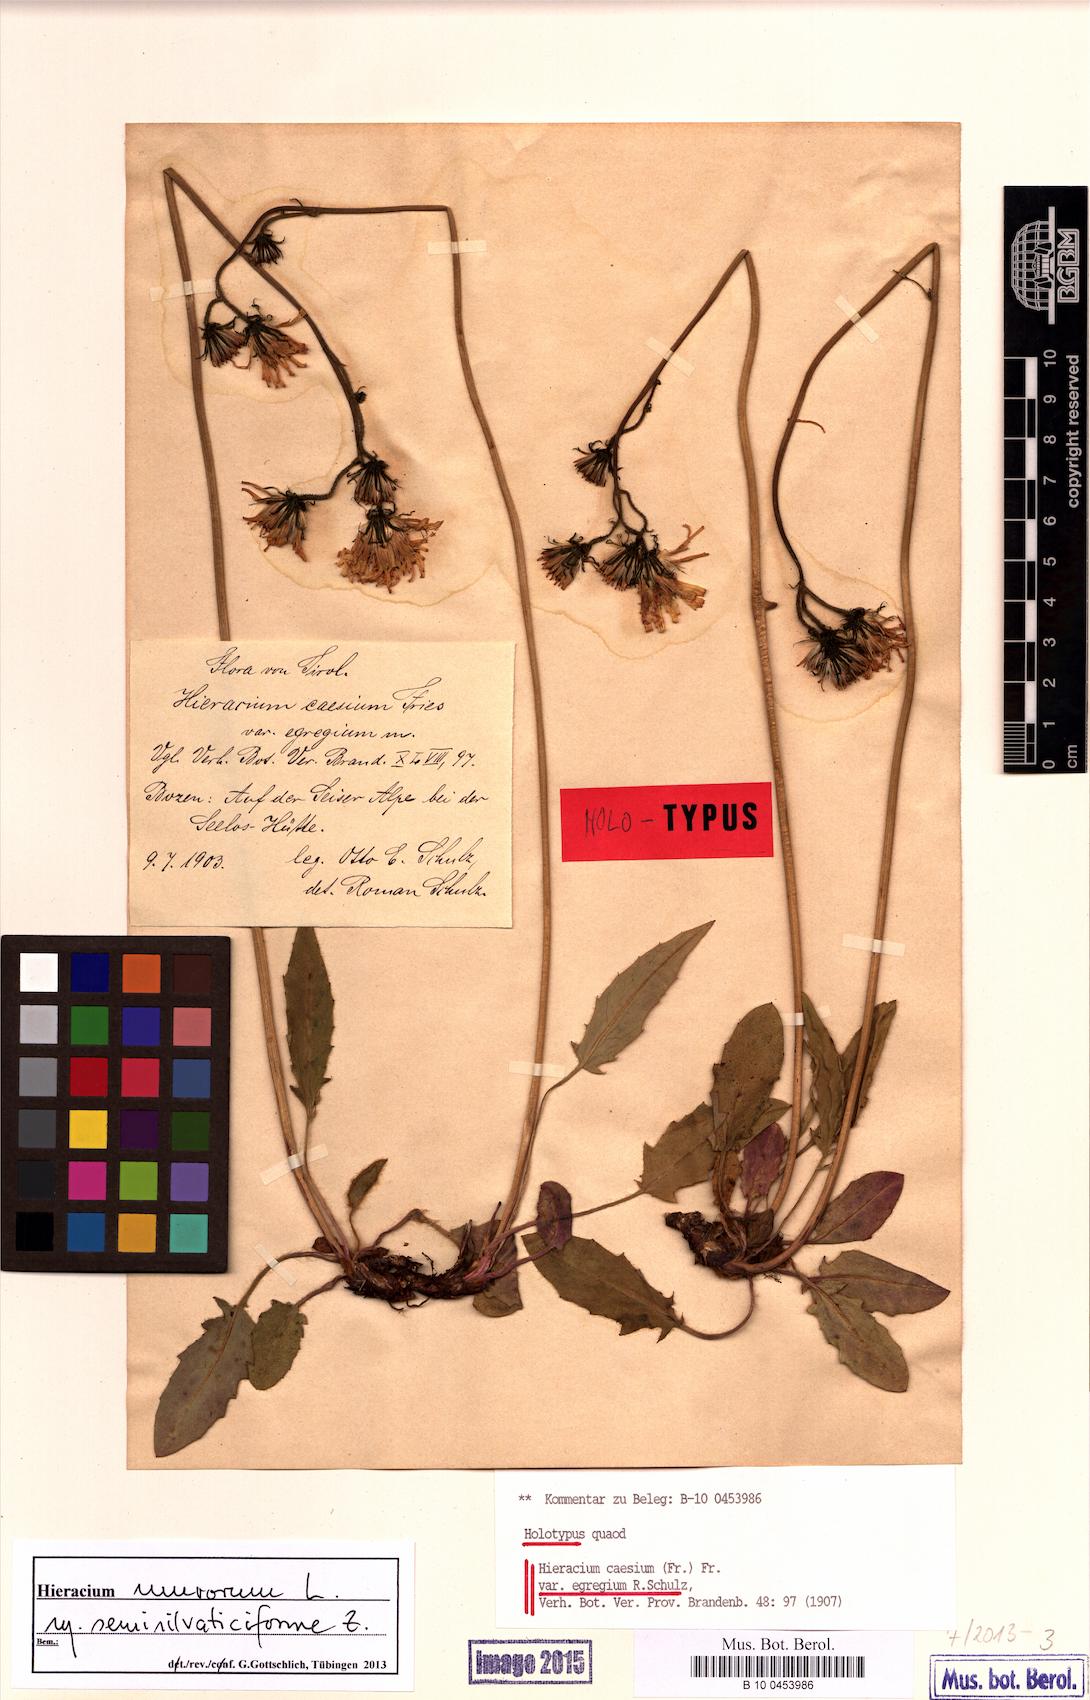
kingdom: Plantae
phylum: Tracheophyta
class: Magnoliopsida
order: Asterales
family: Asteraceae
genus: Hieracium
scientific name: Hieracium caesium
